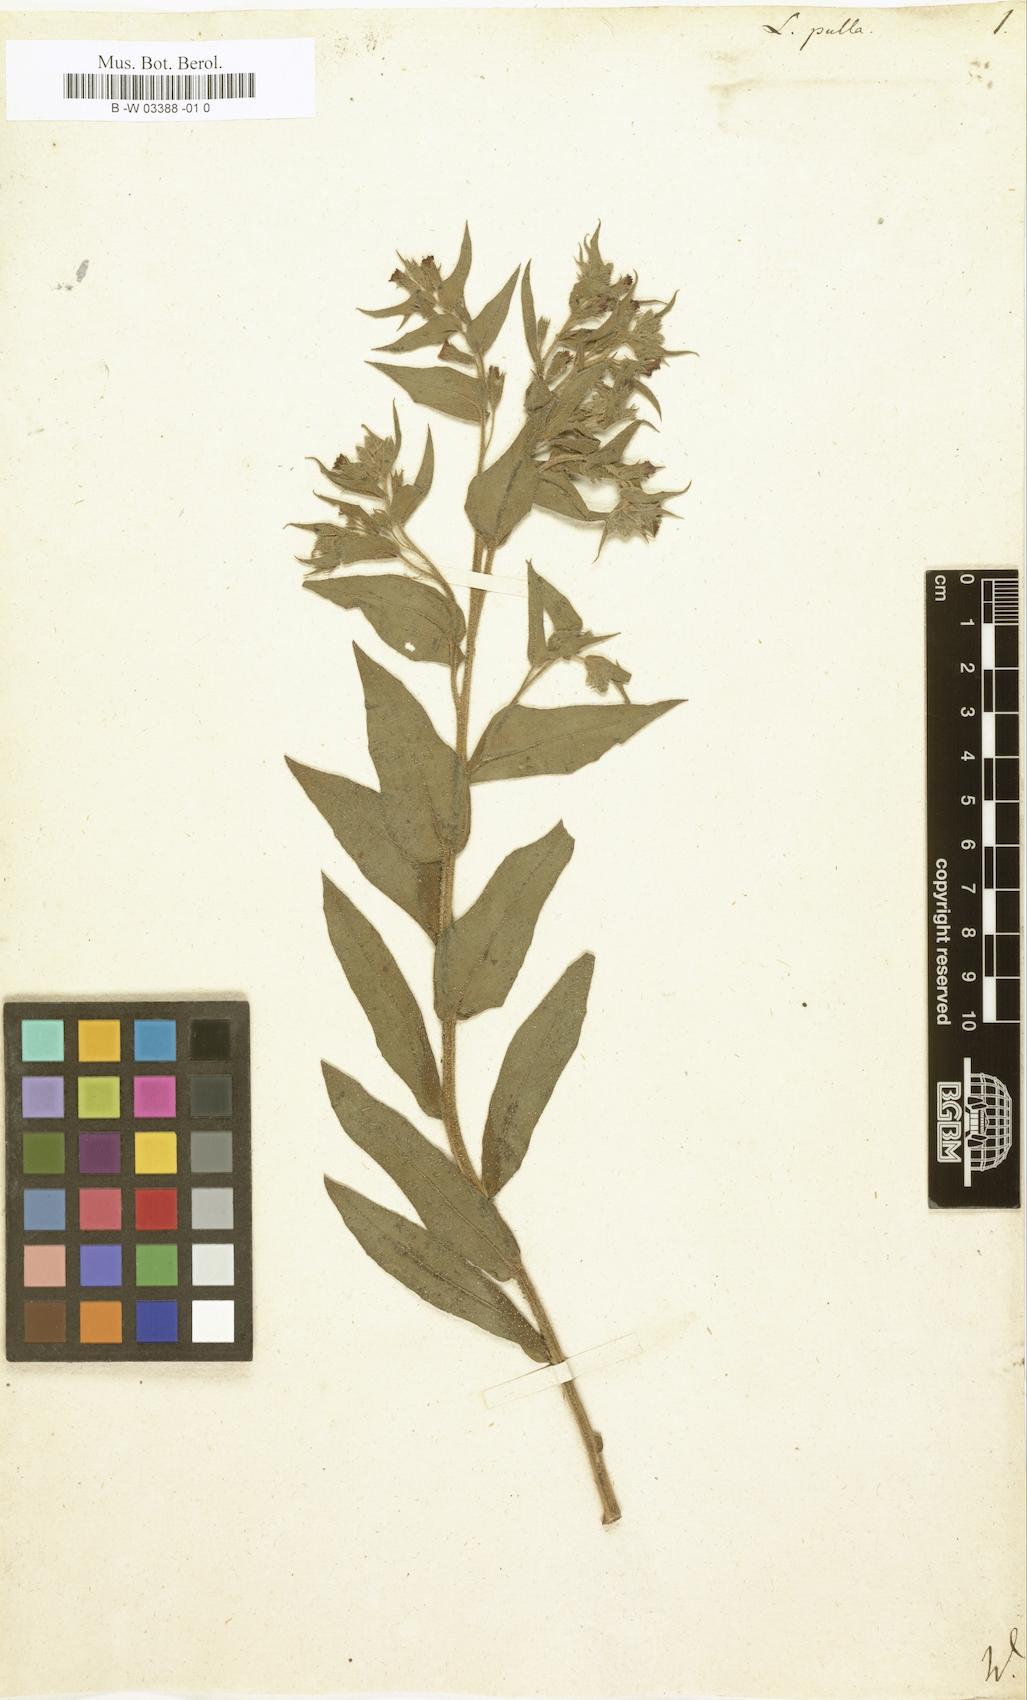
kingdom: Plantae
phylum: Tracheophyta
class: Magnoliopsida
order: Boraginales
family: Boraginaceae
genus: Nonea
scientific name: Nonea
